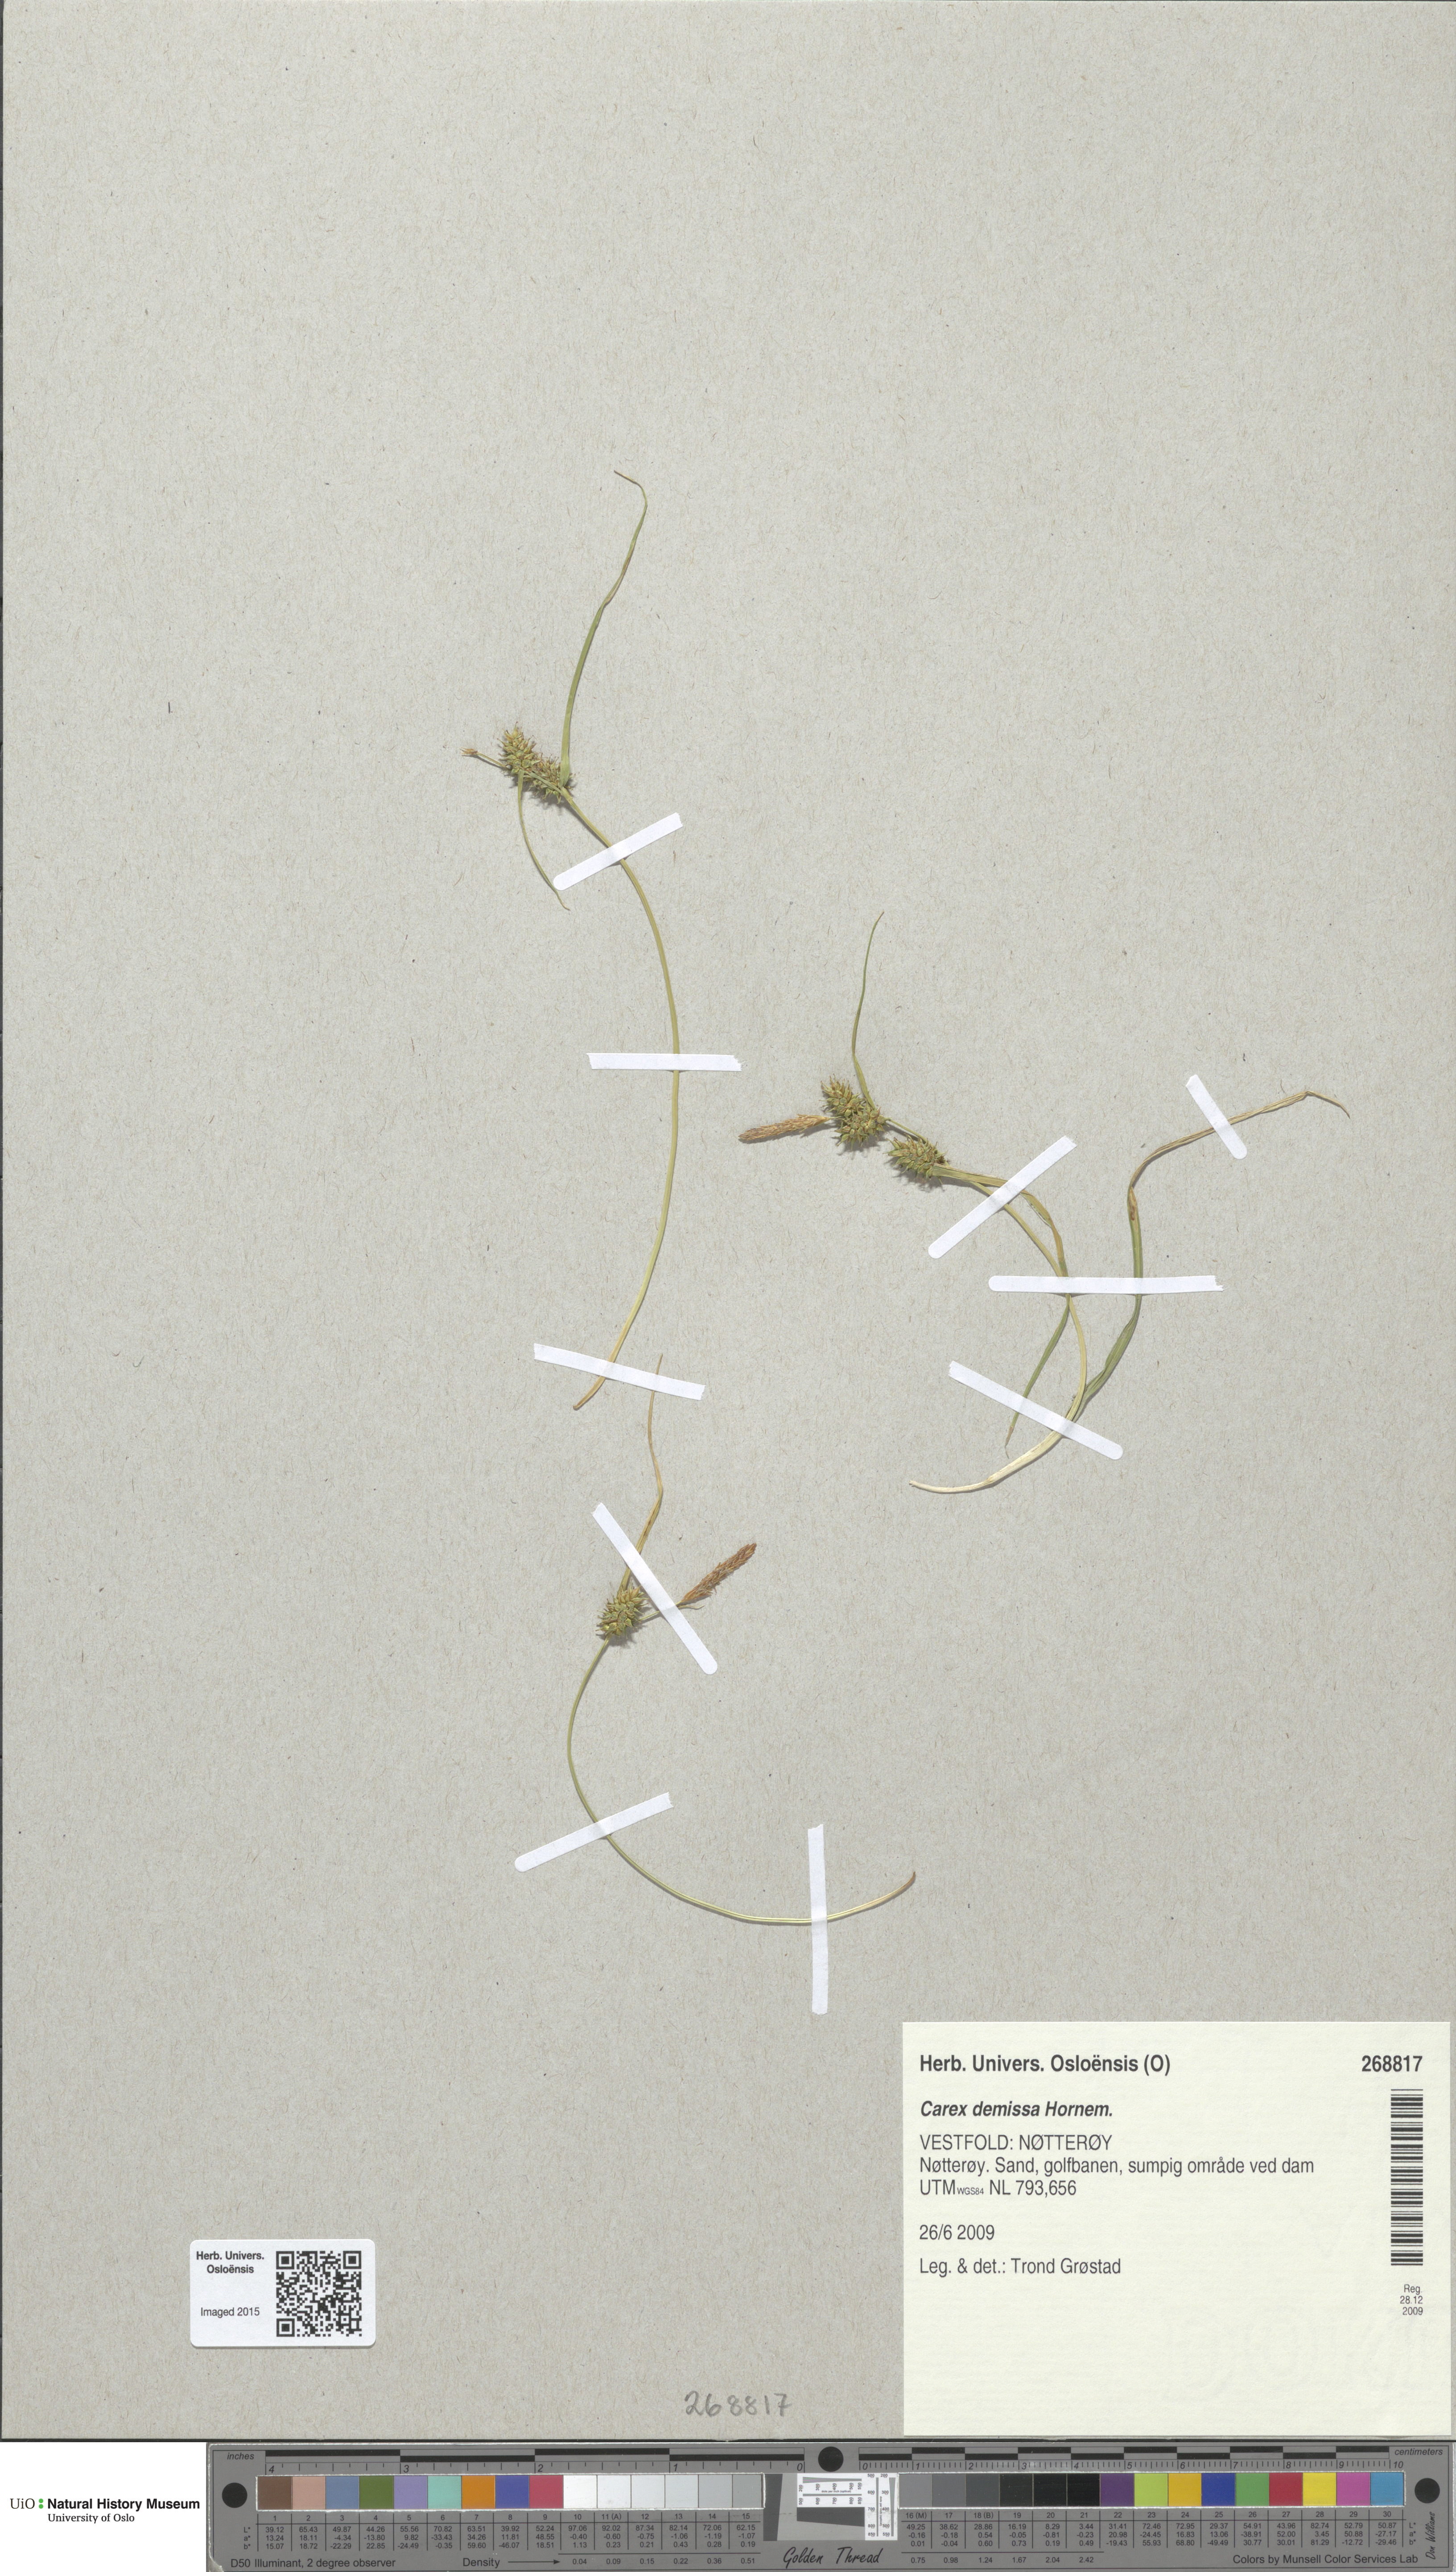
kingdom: Plantae
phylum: Tracheophyta
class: Liliopsida
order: Poales
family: Cyperaceae
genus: Carex
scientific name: Carex demissa
